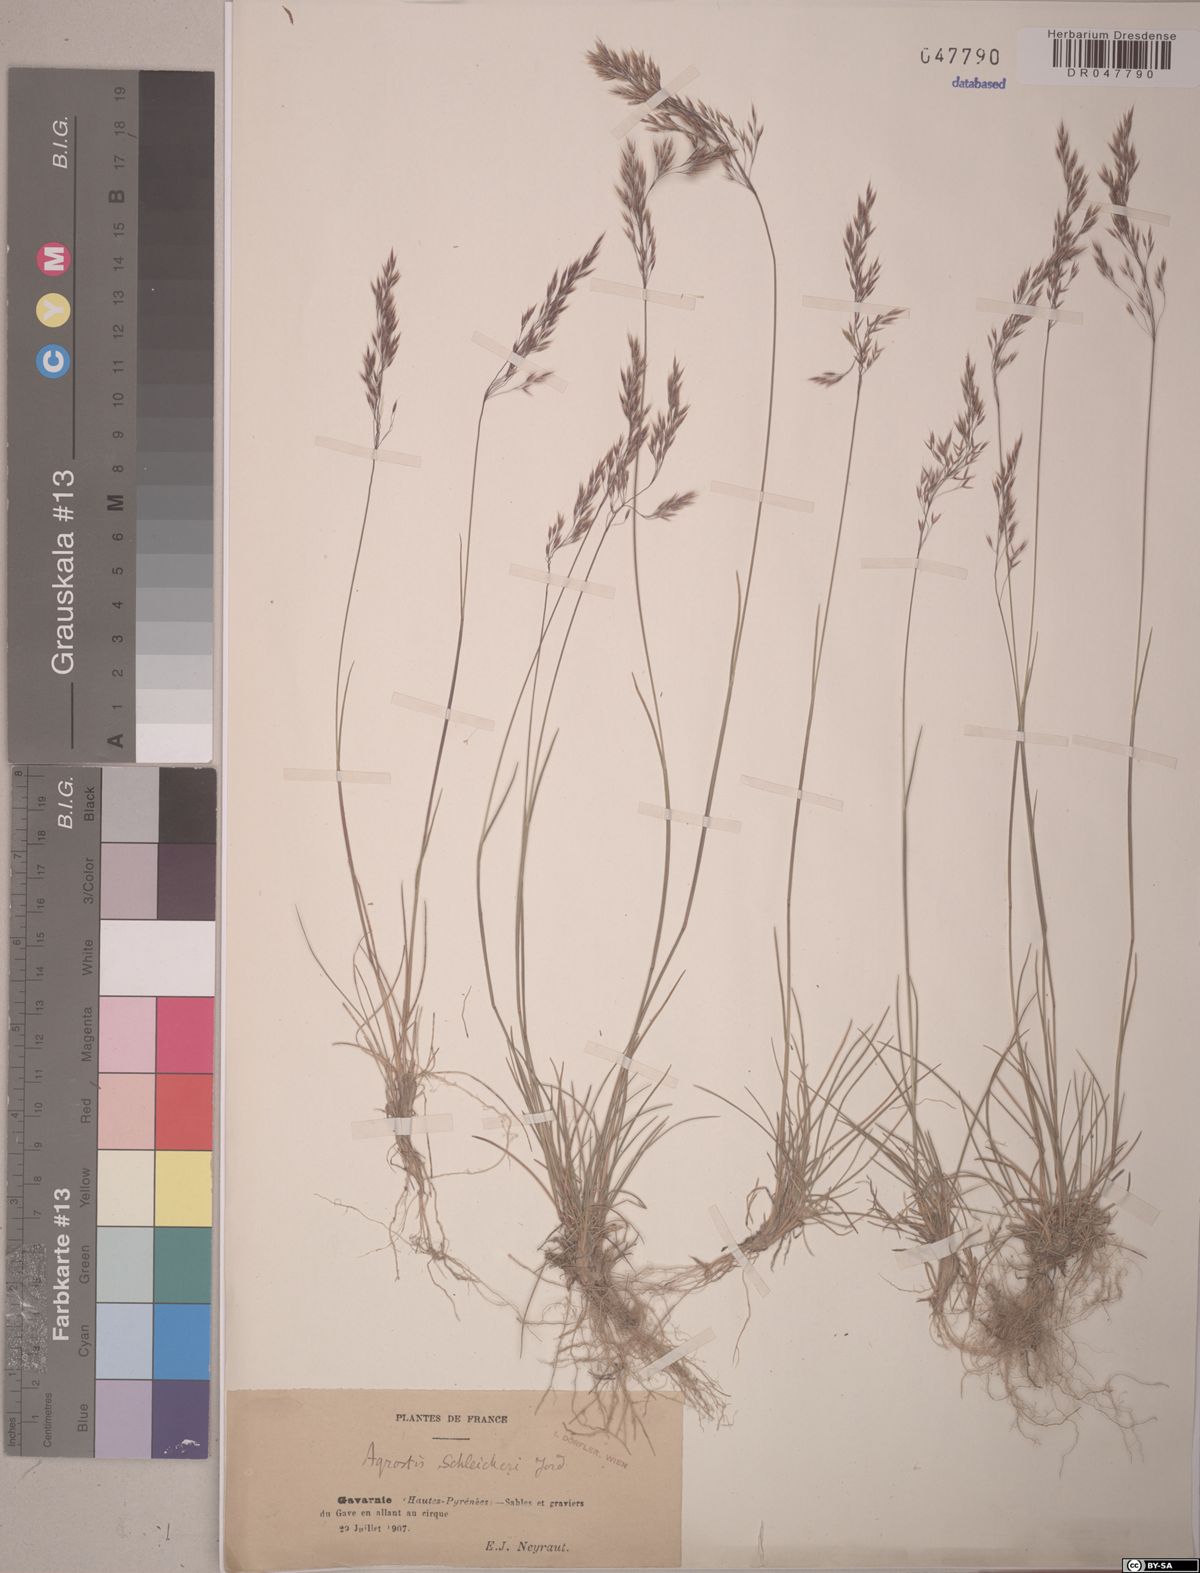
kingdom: Plantae
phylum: Tracheophyta
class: Liliopsida
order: Poales
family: Poaceae
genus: Alpagrostis
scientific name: Alpagrostis schleicheri
